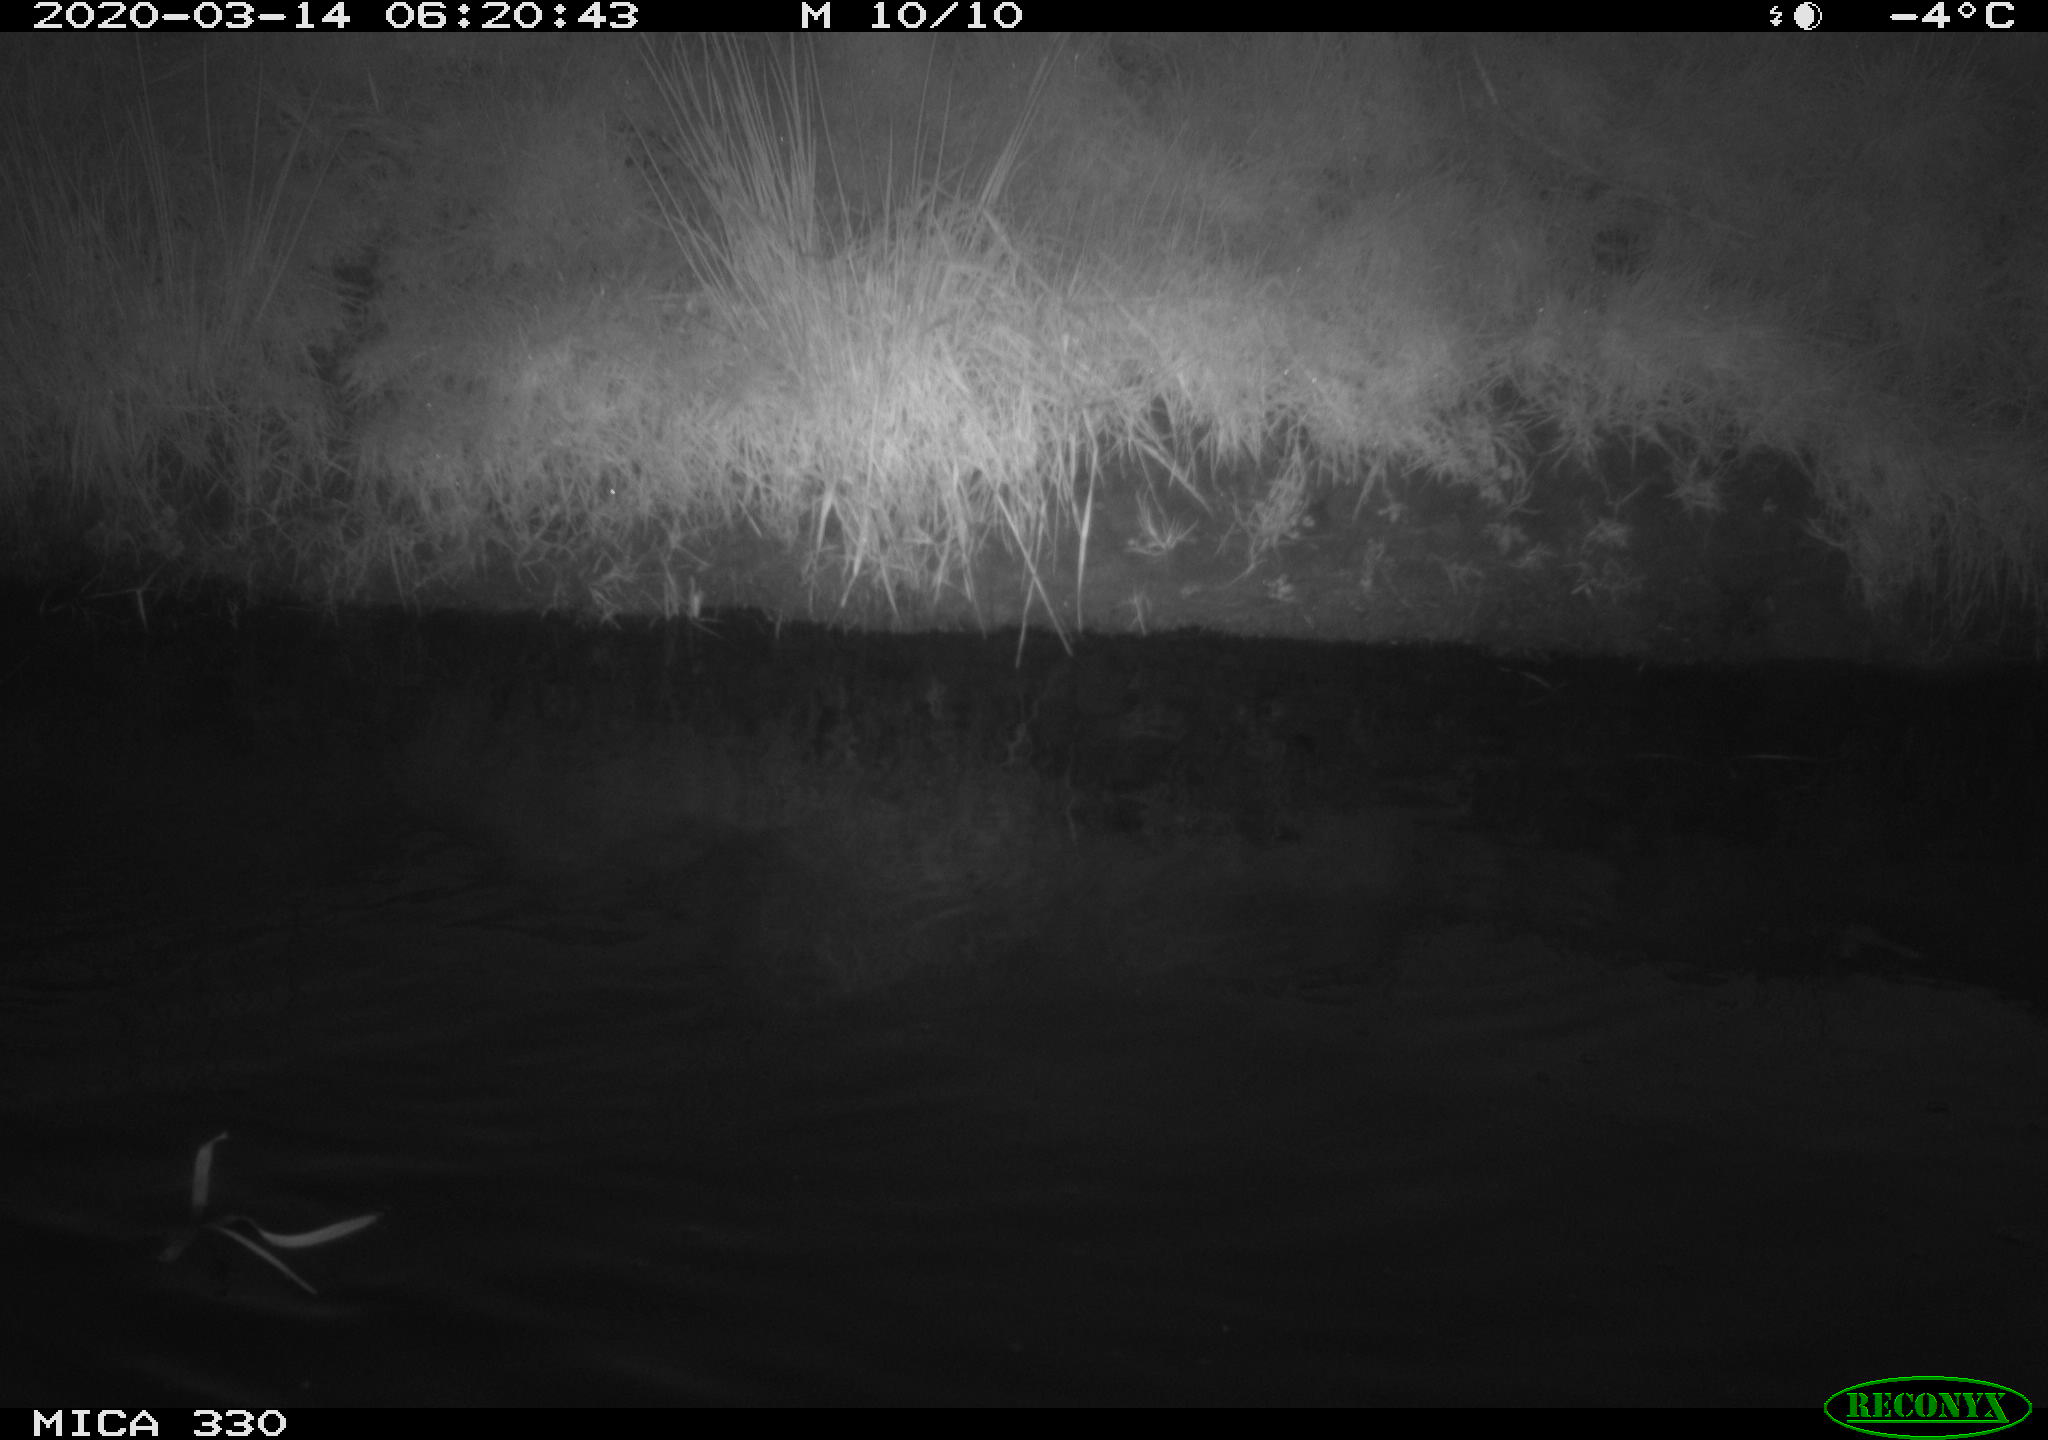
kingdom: Animalia
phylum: Chordata
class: Aves
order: Anseriformes
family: Anatidae
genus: Anas
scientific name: Anas platyrhynchos
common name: Mallard
